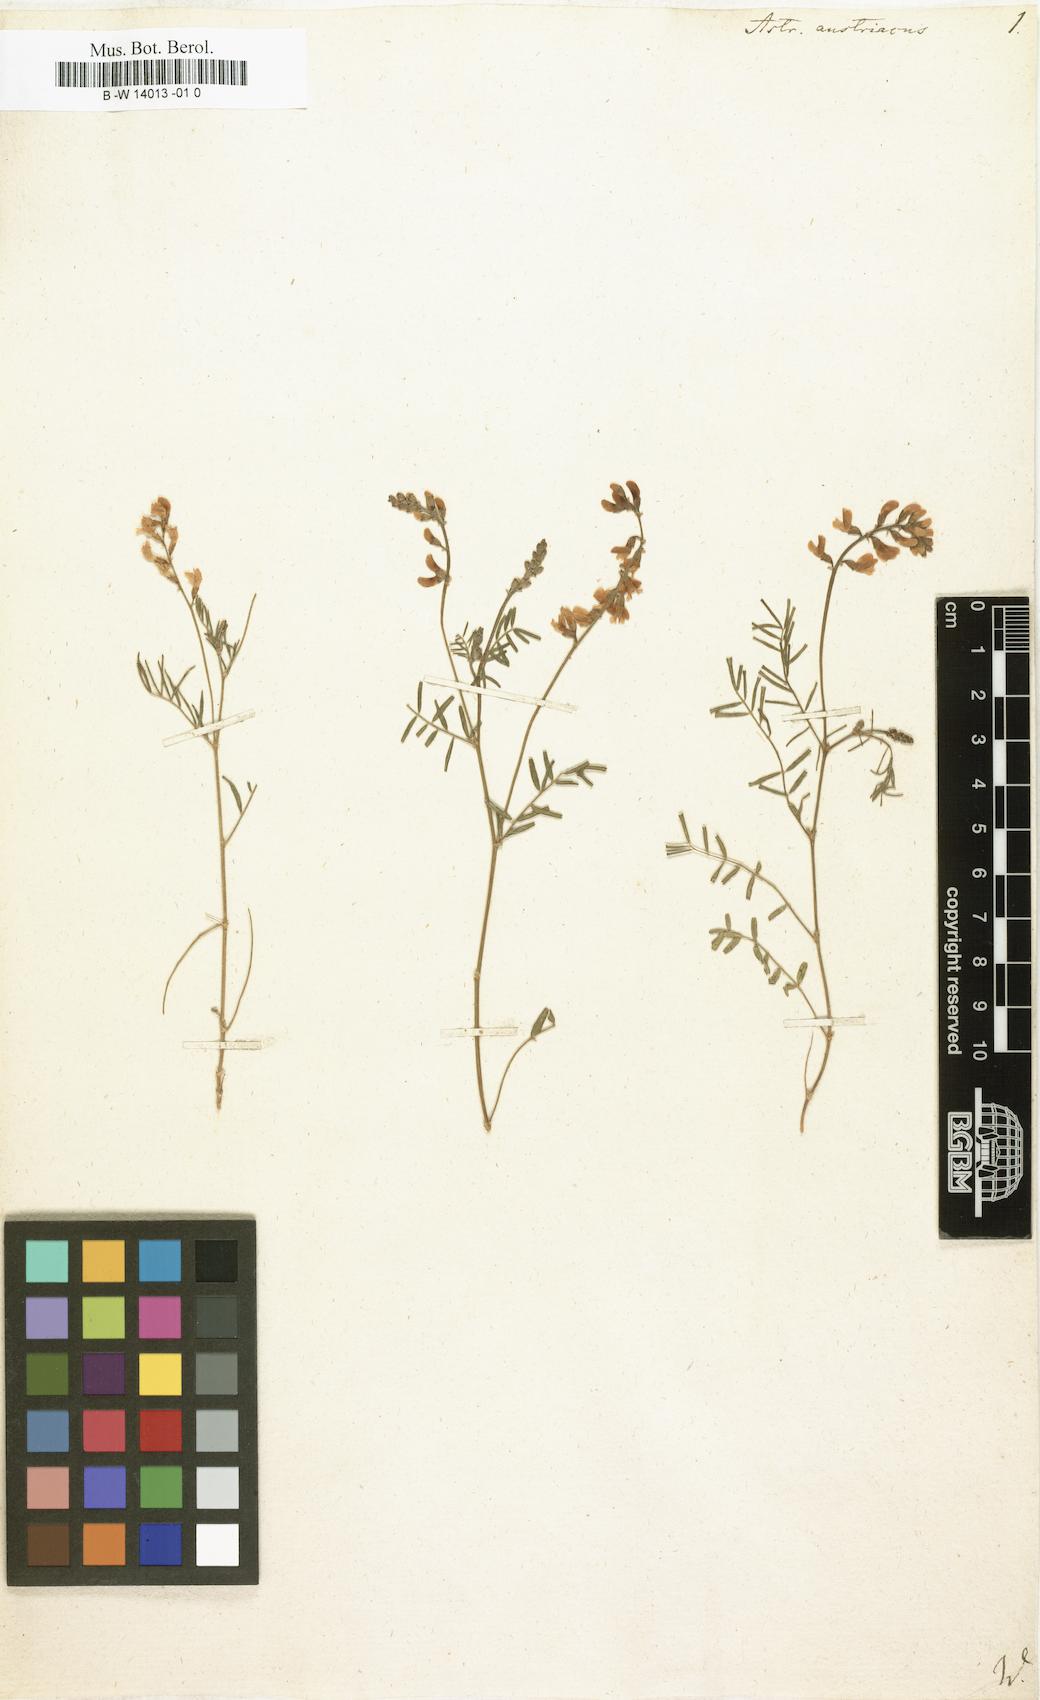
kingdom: Plantae
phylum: Tracheophyta
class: Magnoliopsida
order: Fabales
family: Fabaceae
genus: Astragalus
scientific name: Astragalus austriacus
